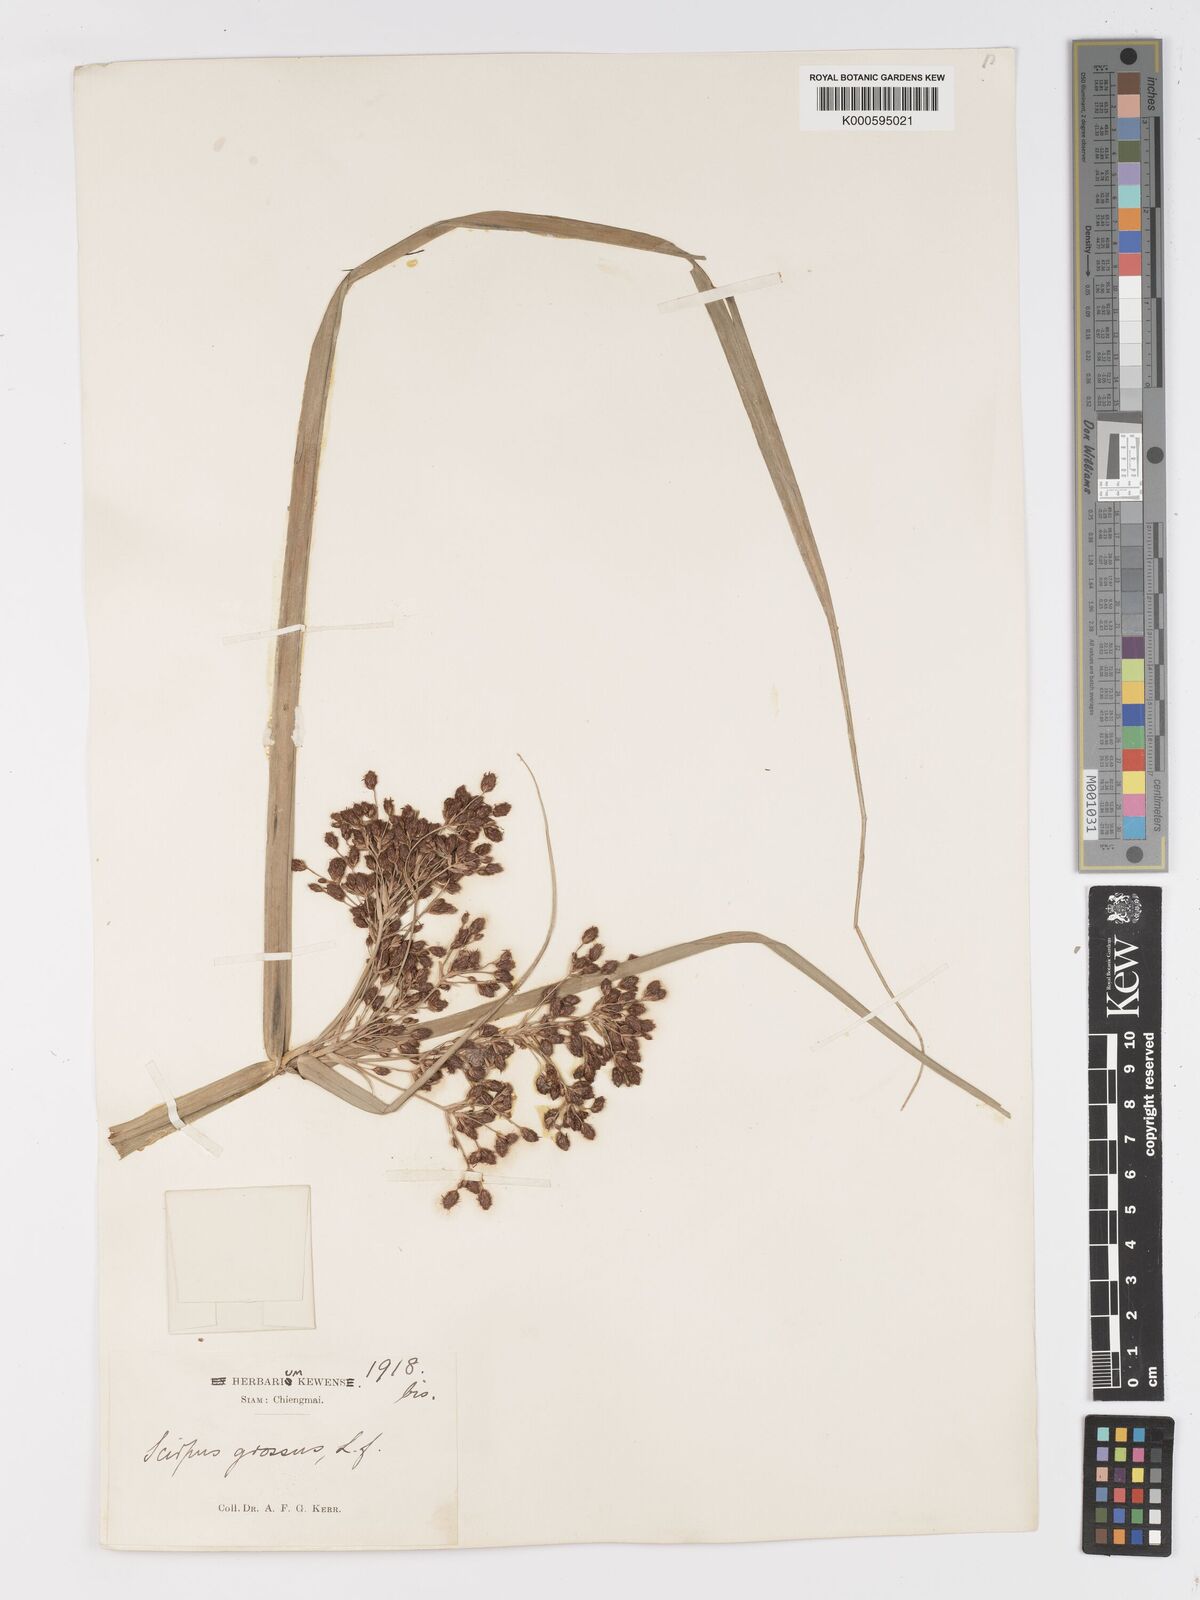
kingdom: Plantae
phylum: Tracheophyta
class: Liliopsida
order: Poales
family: Cyperaceae
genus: Actinoscirpus
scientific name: Actinoscirpus grossus
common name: Giant bur rush
